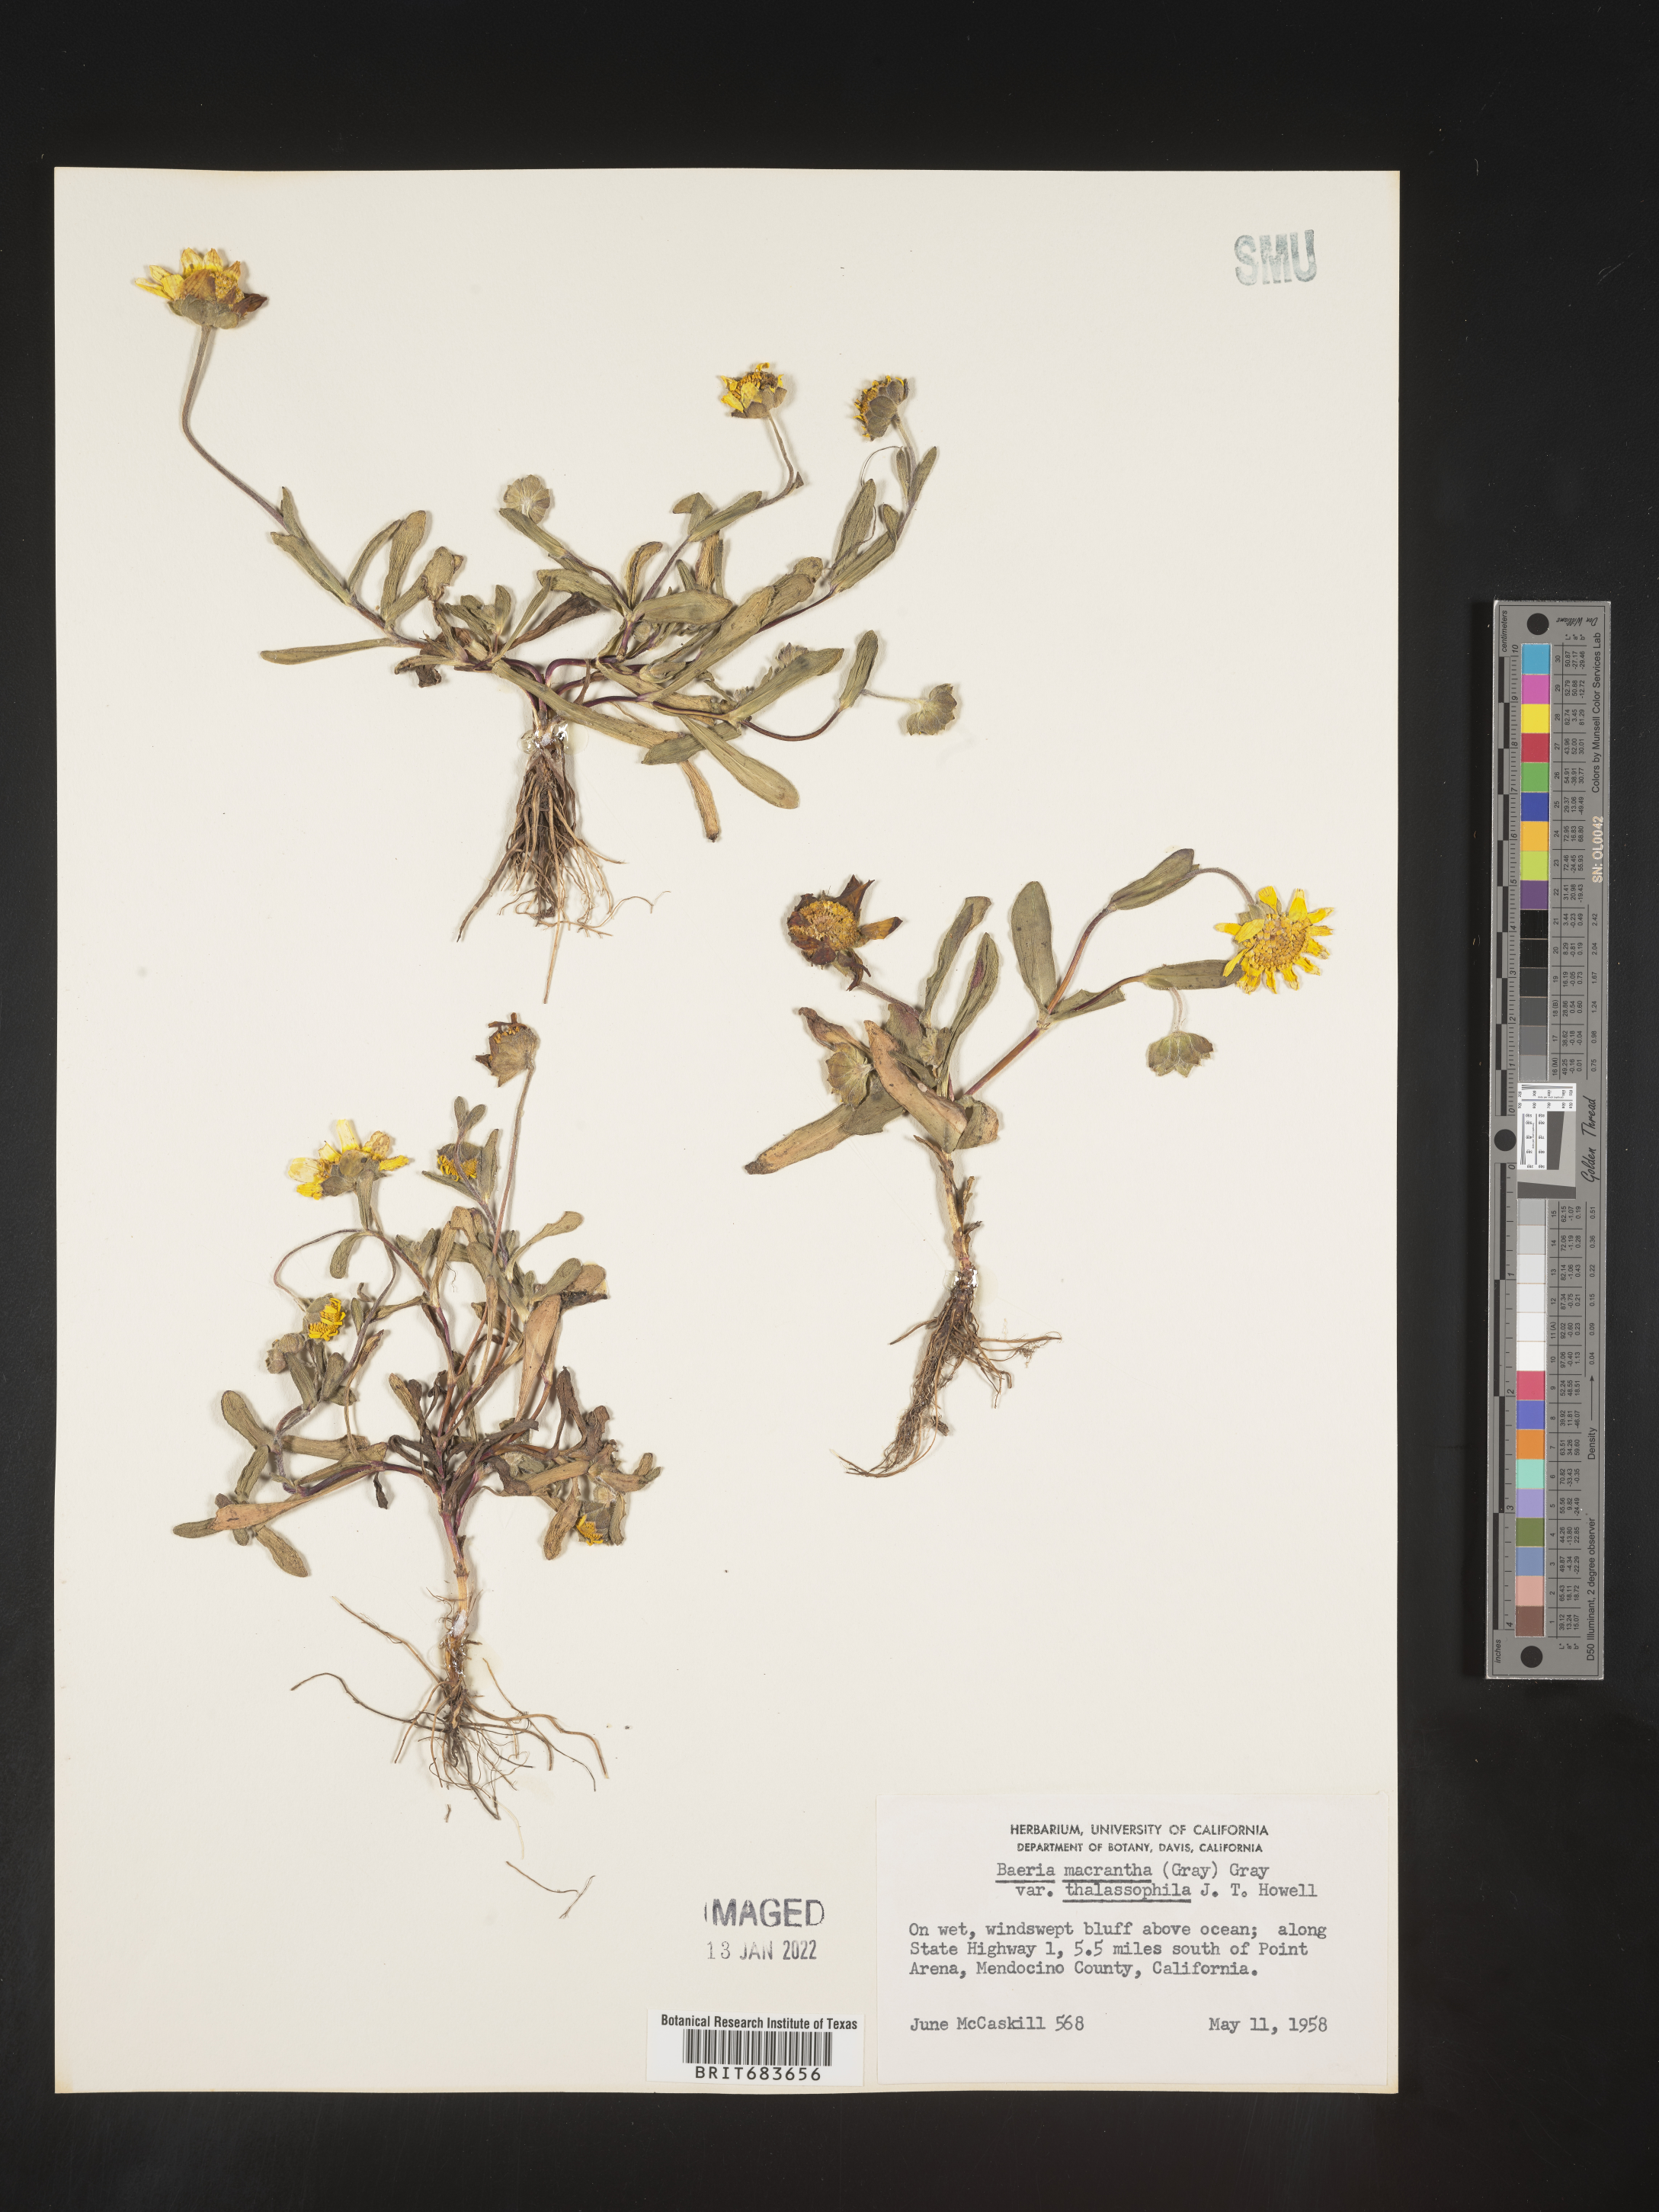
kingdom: Plantae
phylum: Tracheophyta
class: Magnoliopsida
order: Asterales
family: Asteraceae
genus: Lasthenia
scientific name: Lasthenia
